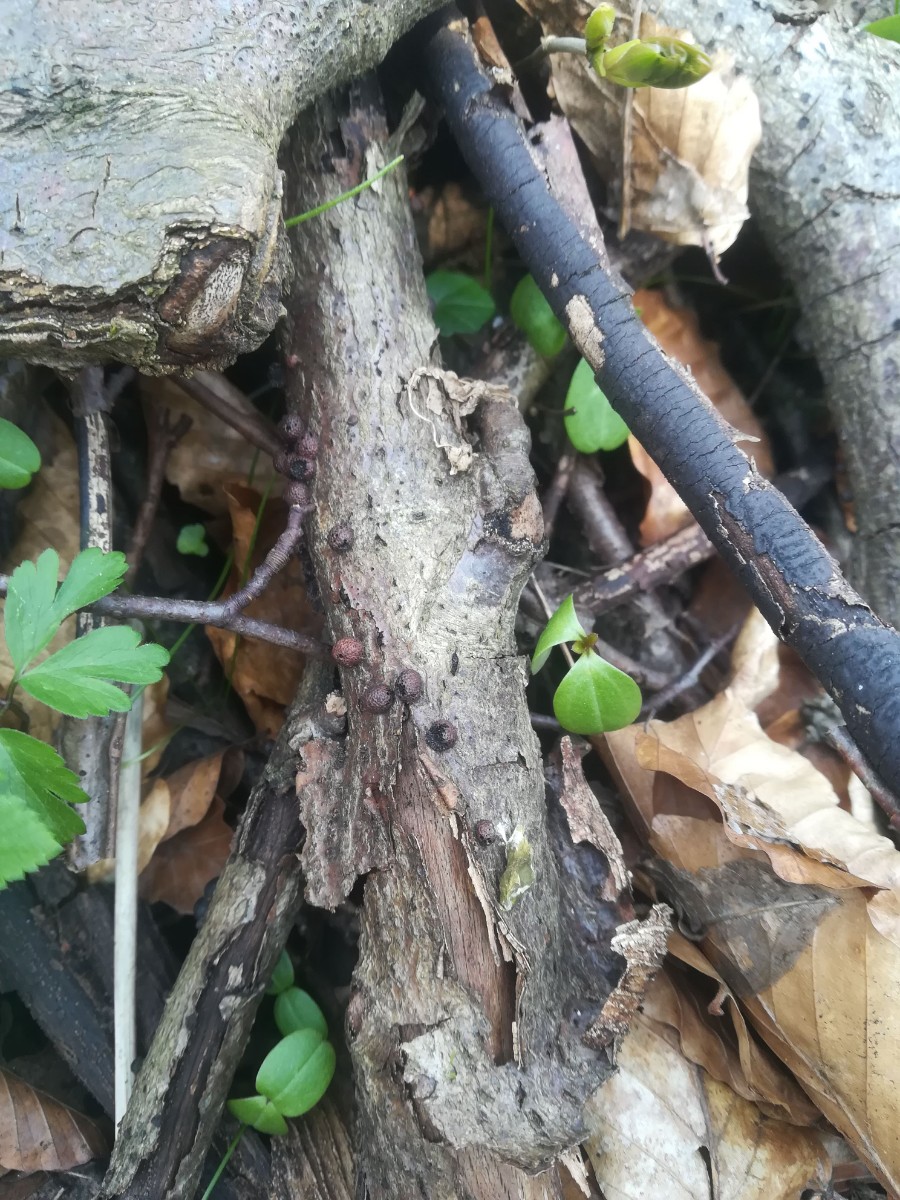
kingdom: Fungi
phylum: Ascomycota
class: Sordariomycetes
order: Xylariales
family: Hypoxylaceae
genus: Hypoxylon
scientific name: Hypoxylon fragiforme
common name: kuljordbær
